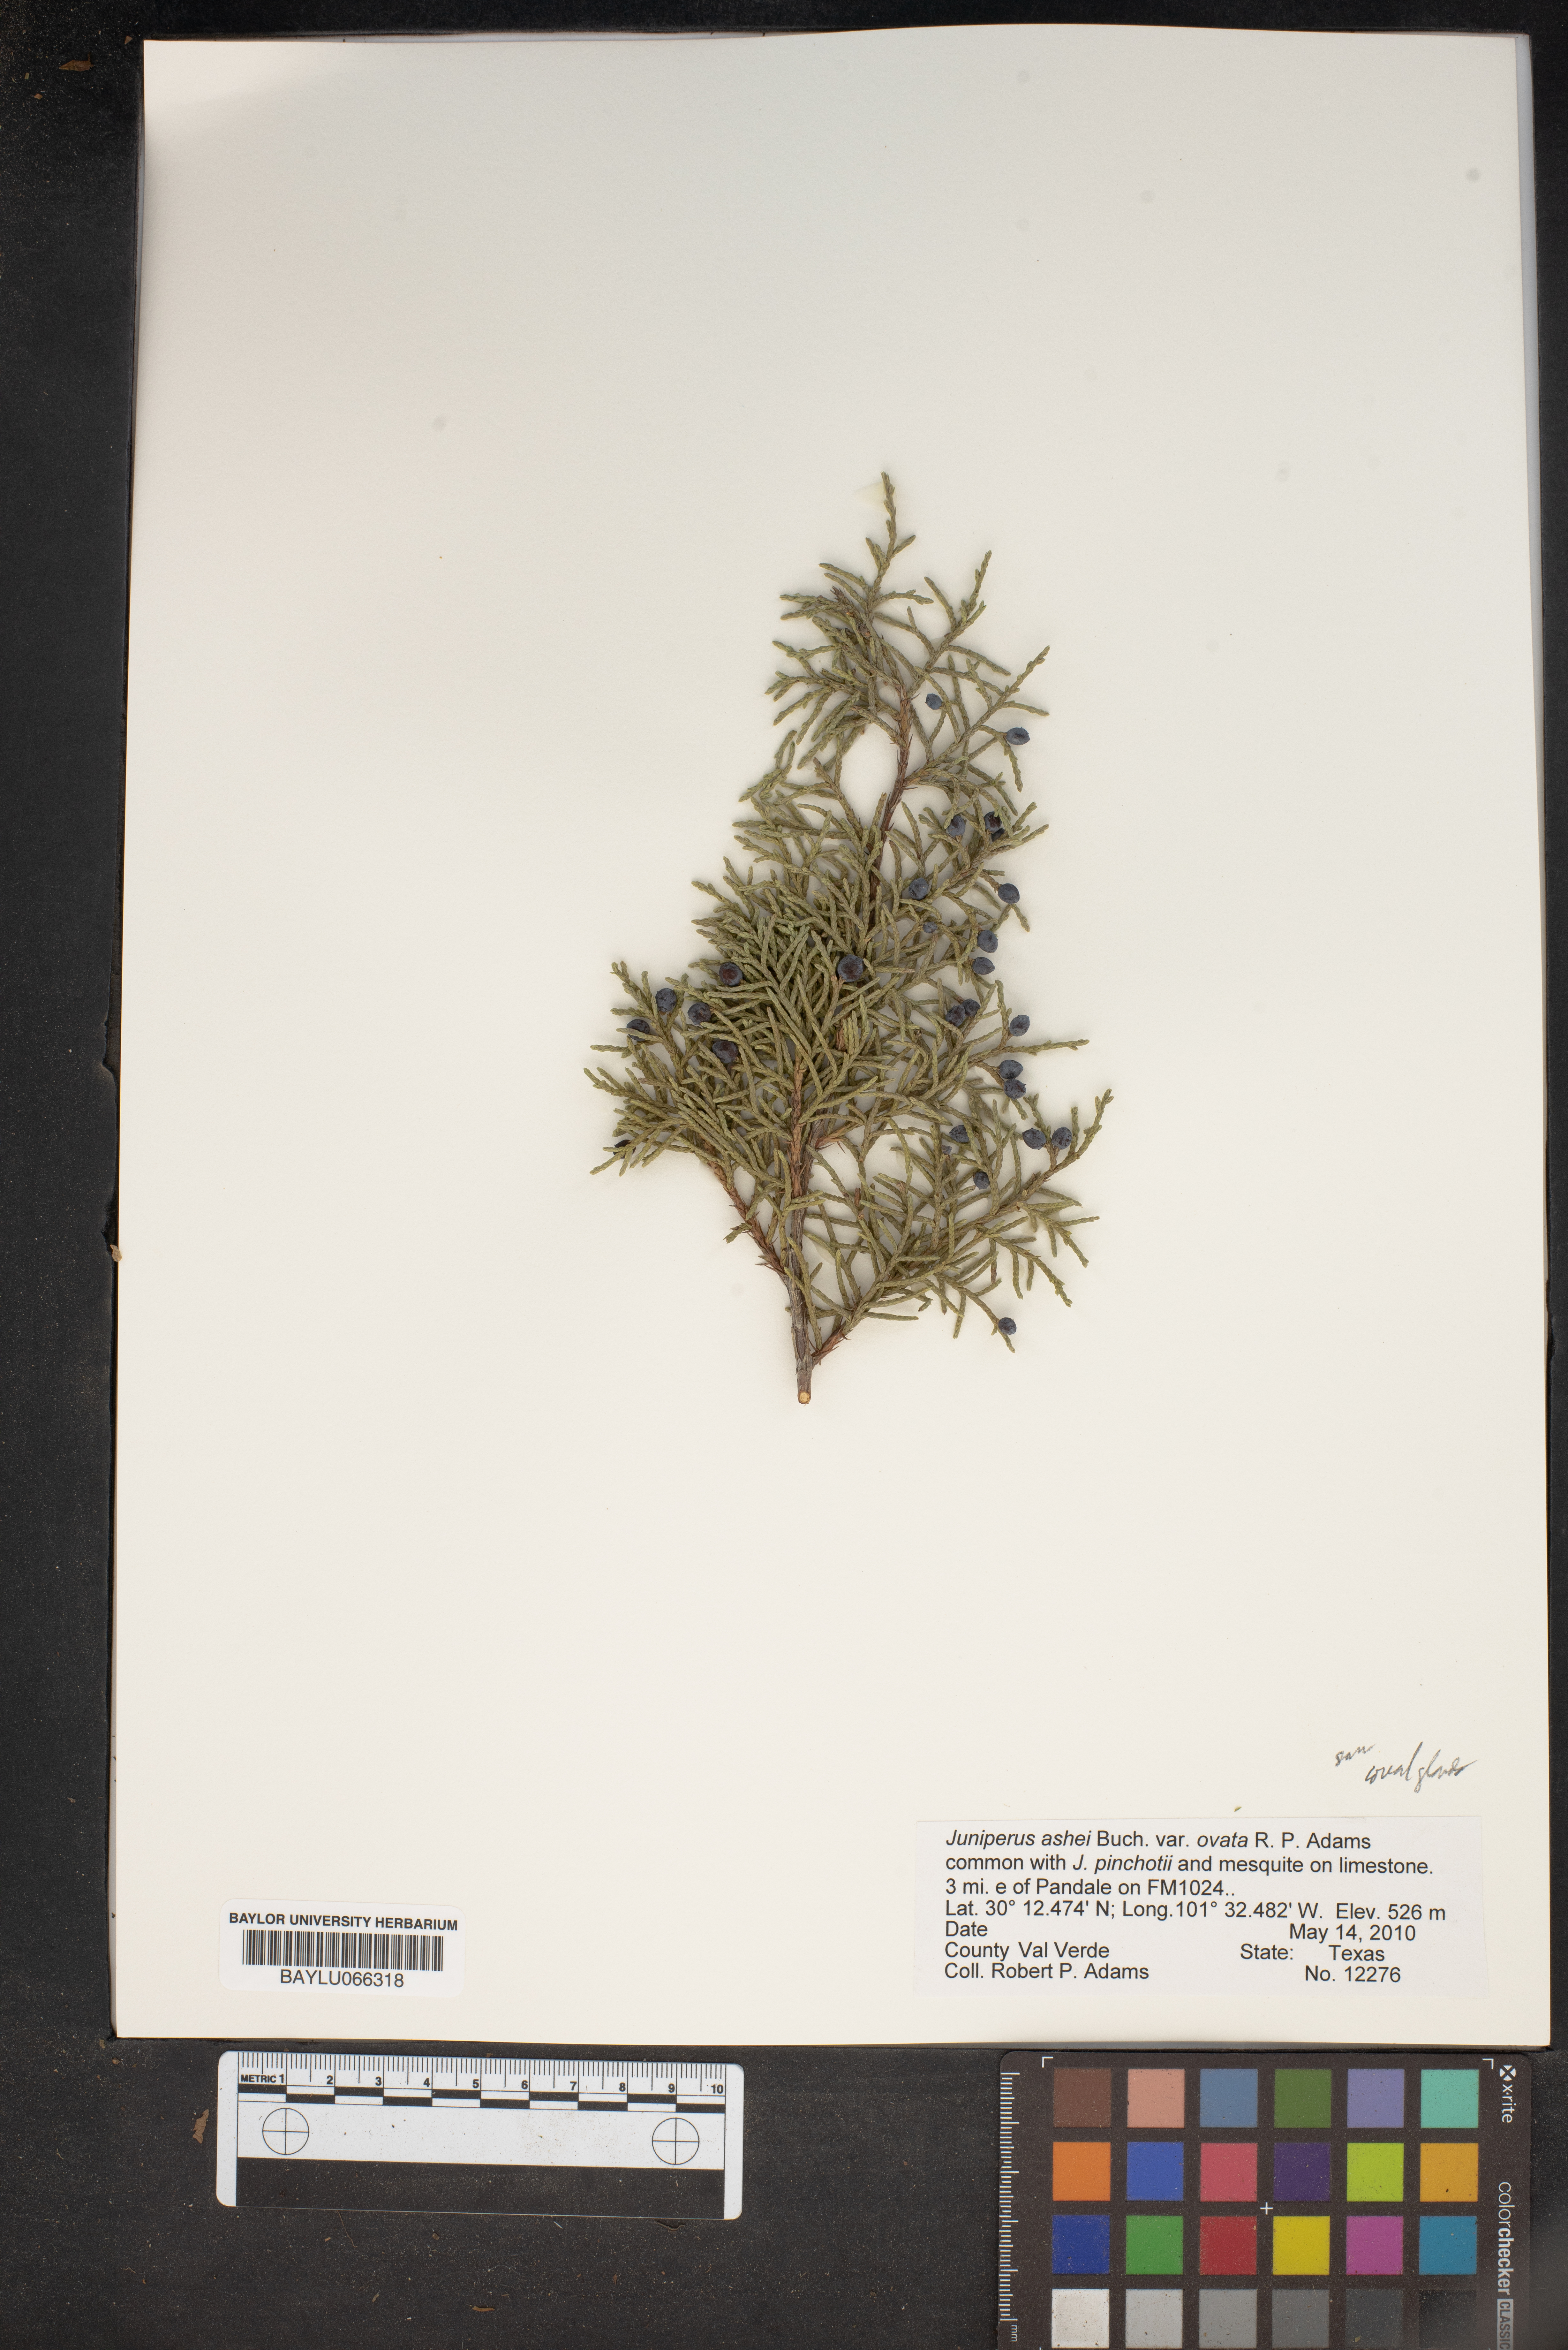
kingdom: Plantae
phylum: Tracheophyta
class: Pinopsida
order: Pinales
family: Cupressaceae
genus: Juniperus
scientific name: Juniperus ashei
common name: Mexican juniper
